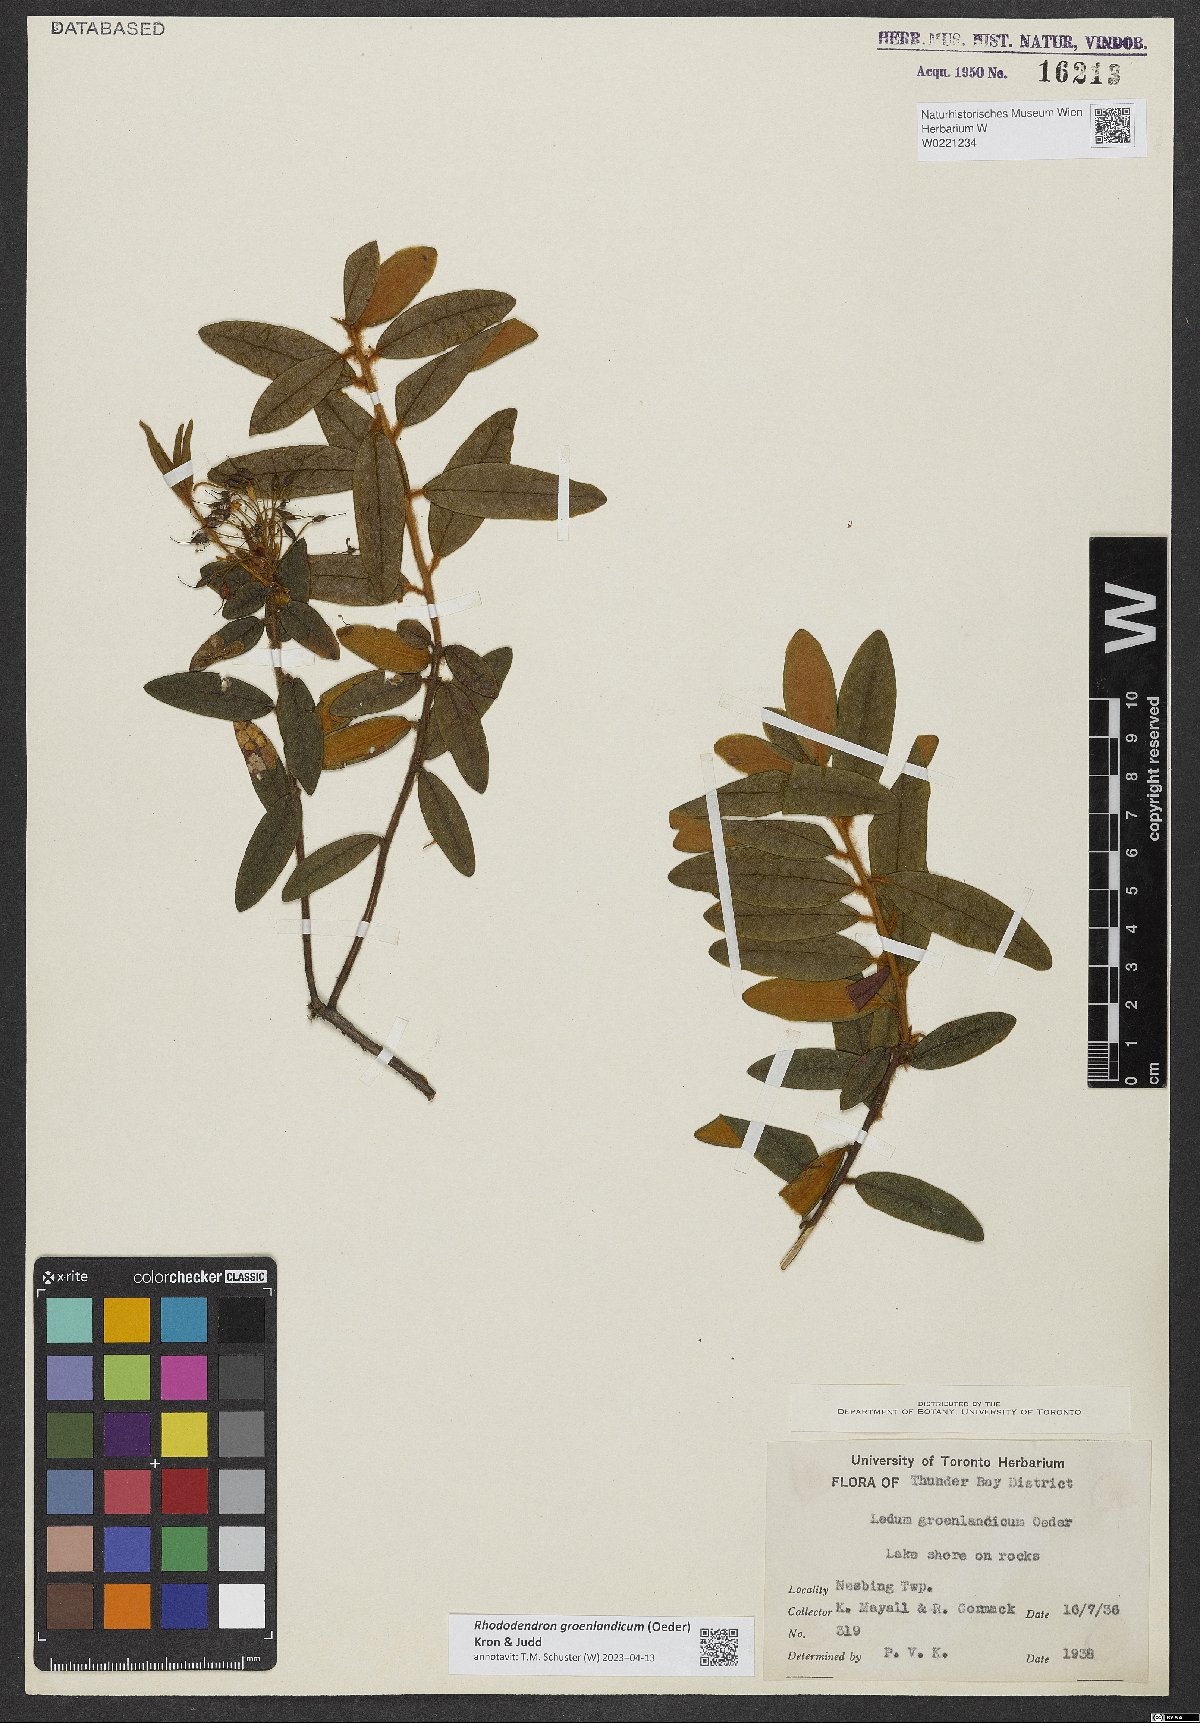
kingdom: Plantae
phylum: Tracheophyta
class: Magnoliopsida
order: Ericales
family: Ericaceae
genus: Rhododendron
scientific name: Rhododendron groenlandicum
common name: Bog labrador tea
